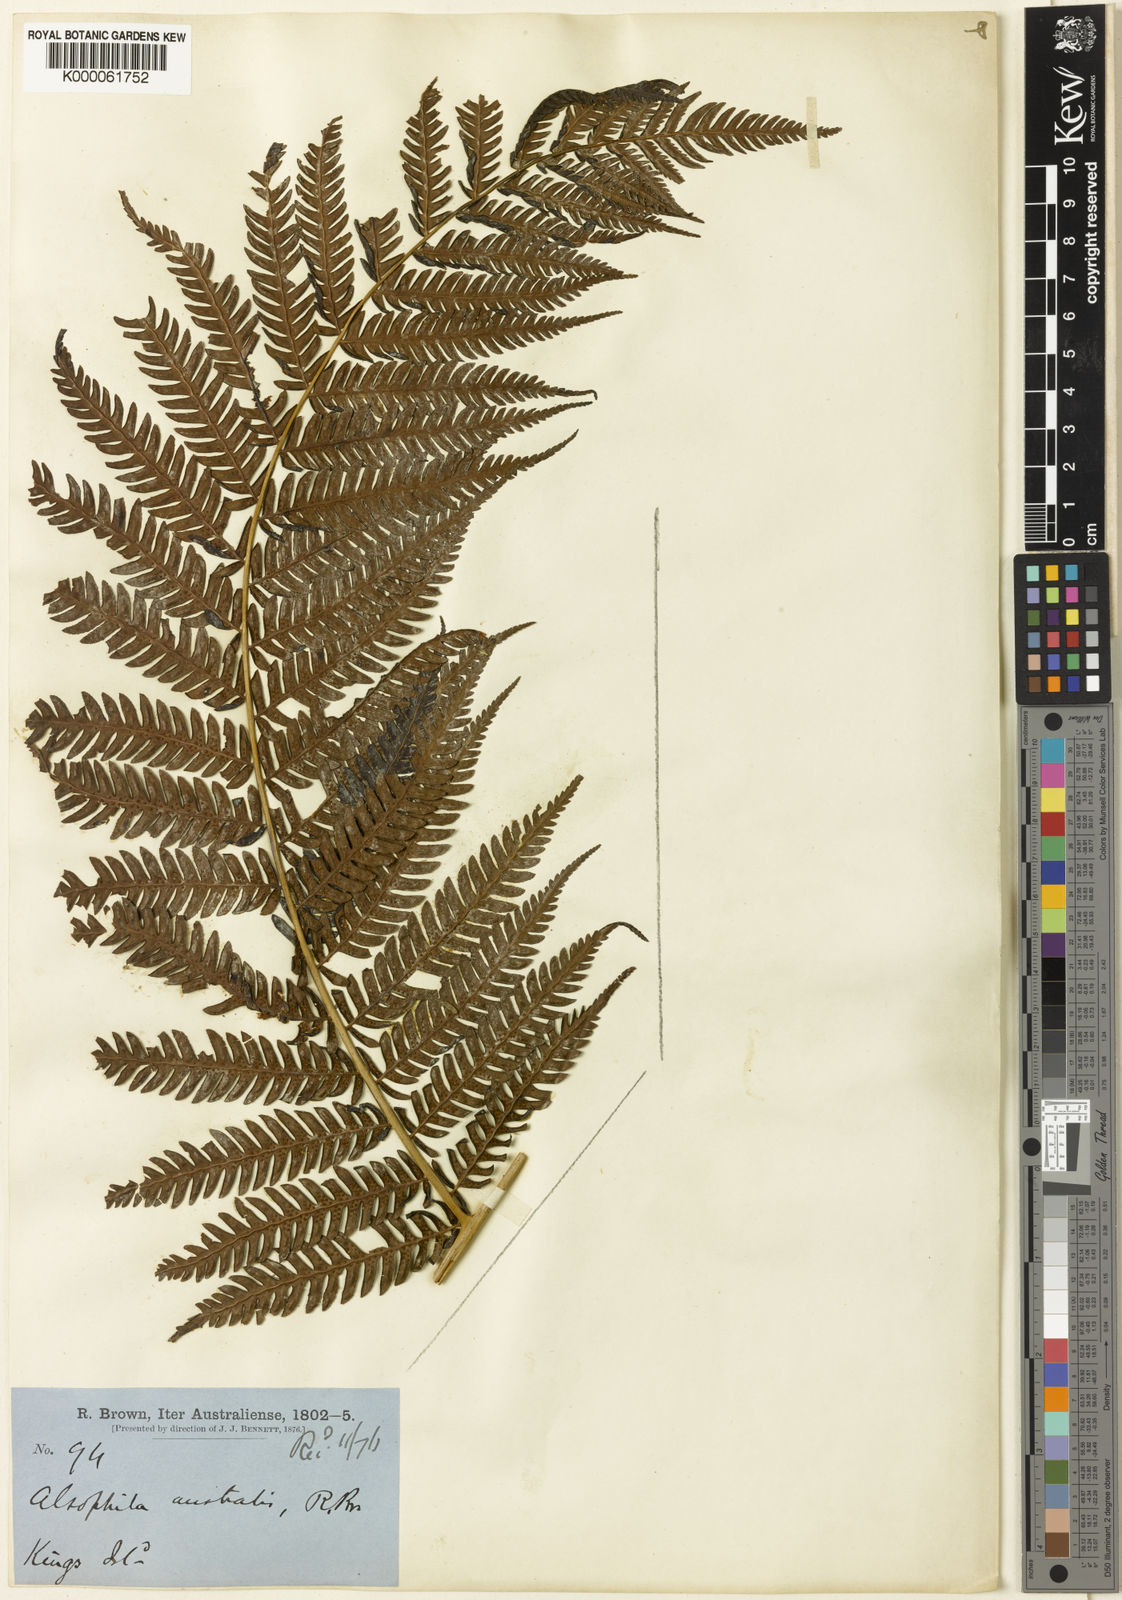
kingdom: Plantae
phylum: Tracheophyta
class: Polypodiopsida
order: Cyatheales
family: Cyatheaceae
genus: Alsophila
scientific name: Alsophila australis
